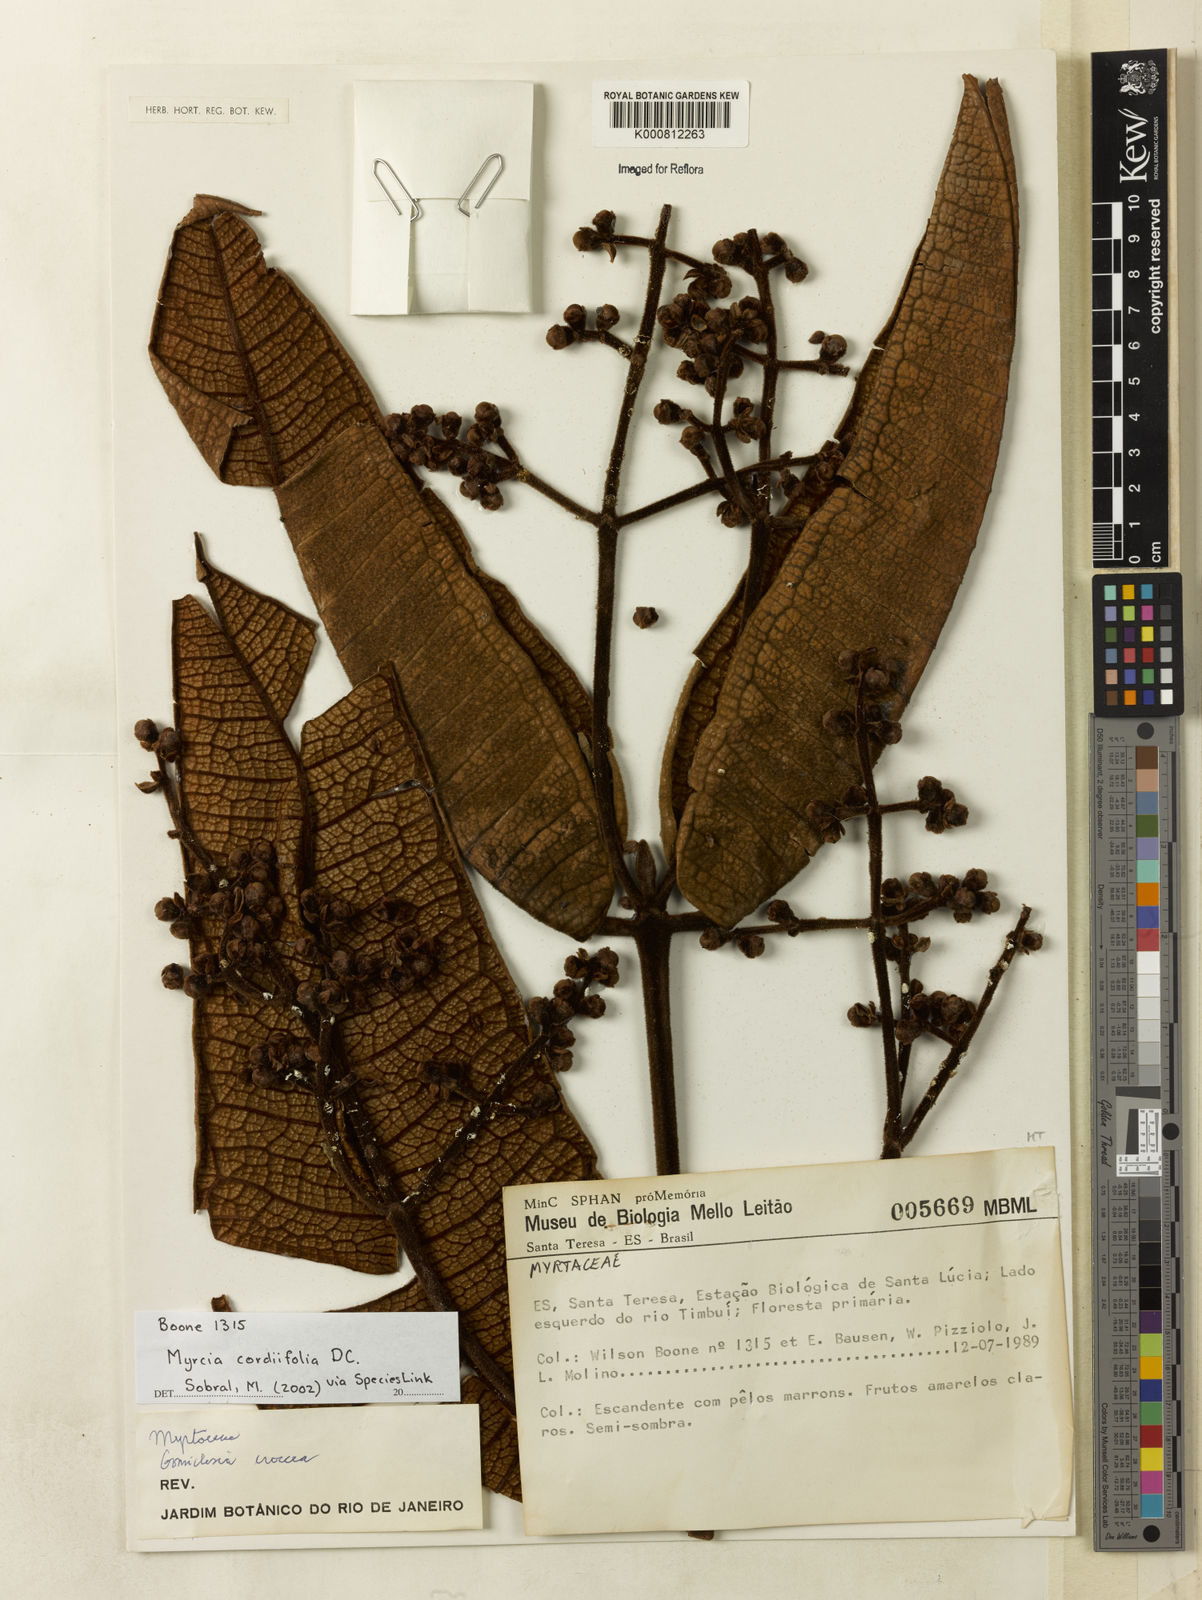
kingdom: Plantae
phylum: Tracheophyta
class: Magnoliopsida
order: Myrtales
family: Myrtaceae
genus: Myrcia
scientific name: Myrcia cordiifolia
